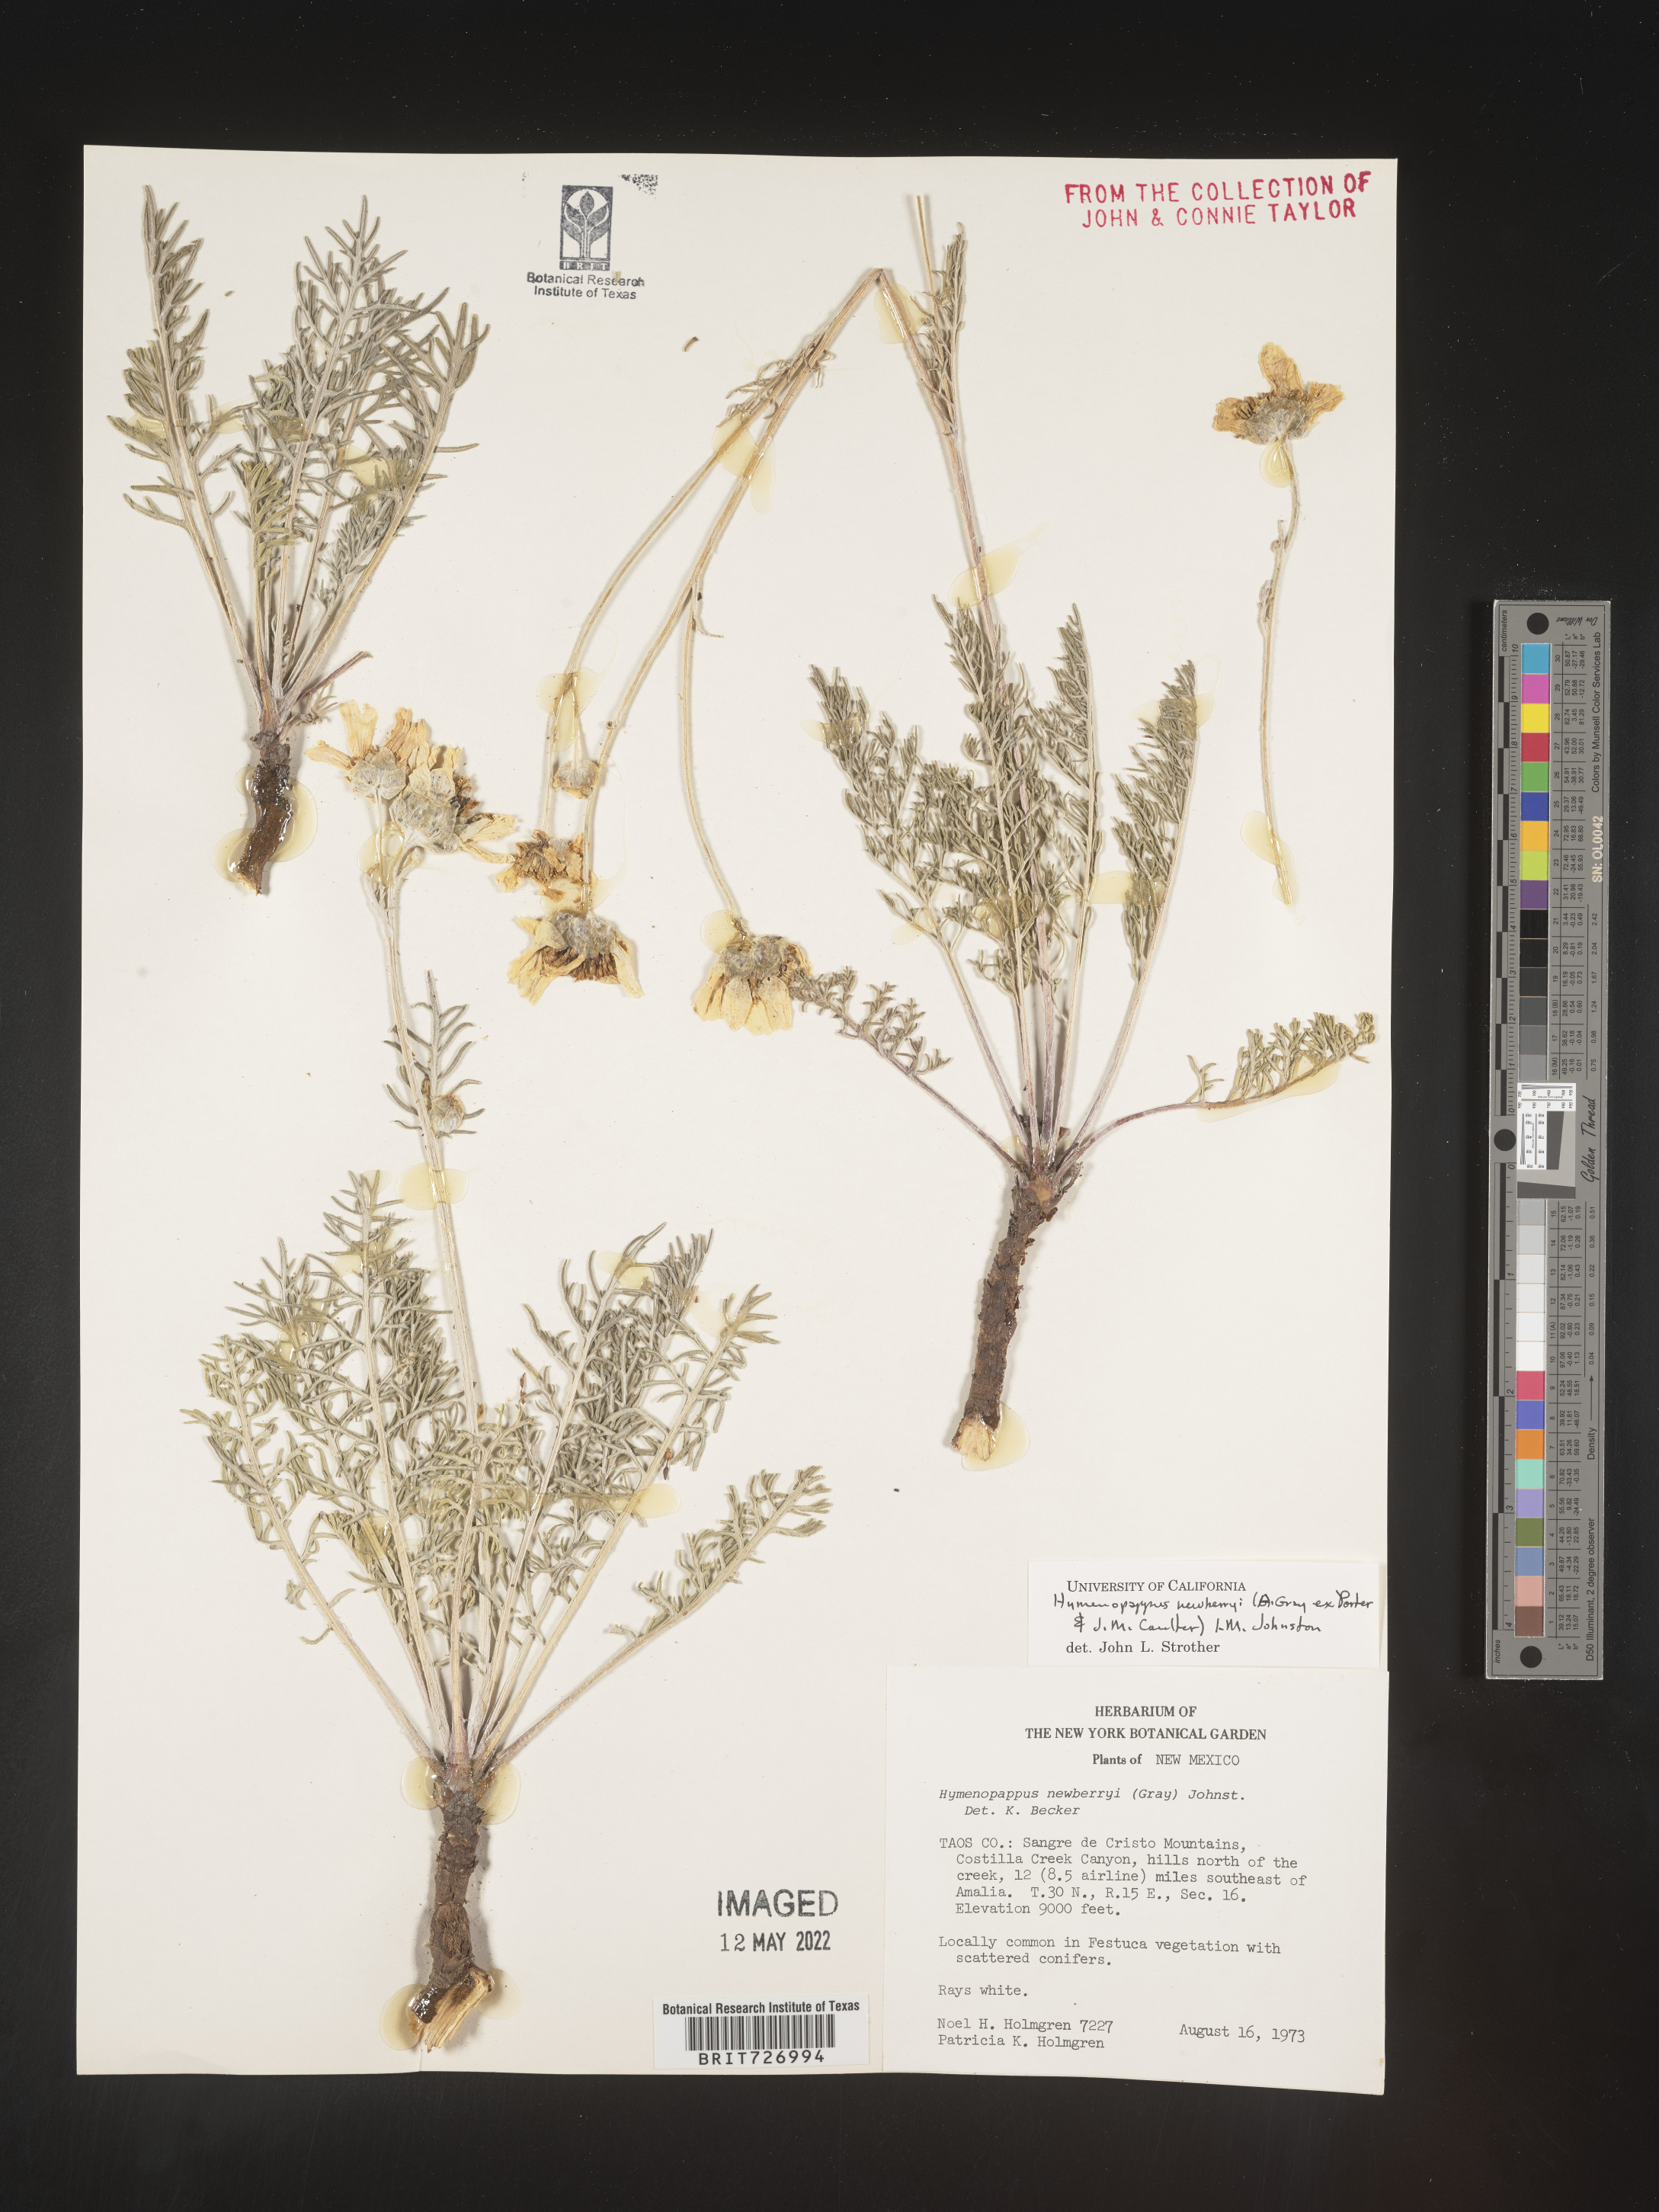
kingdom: Plantae
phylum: Tracheophyta
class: Magnoliopsida
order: Asterales
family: Asteraceae
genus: Hymenopappus
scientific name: Hymenopappus newberryi
